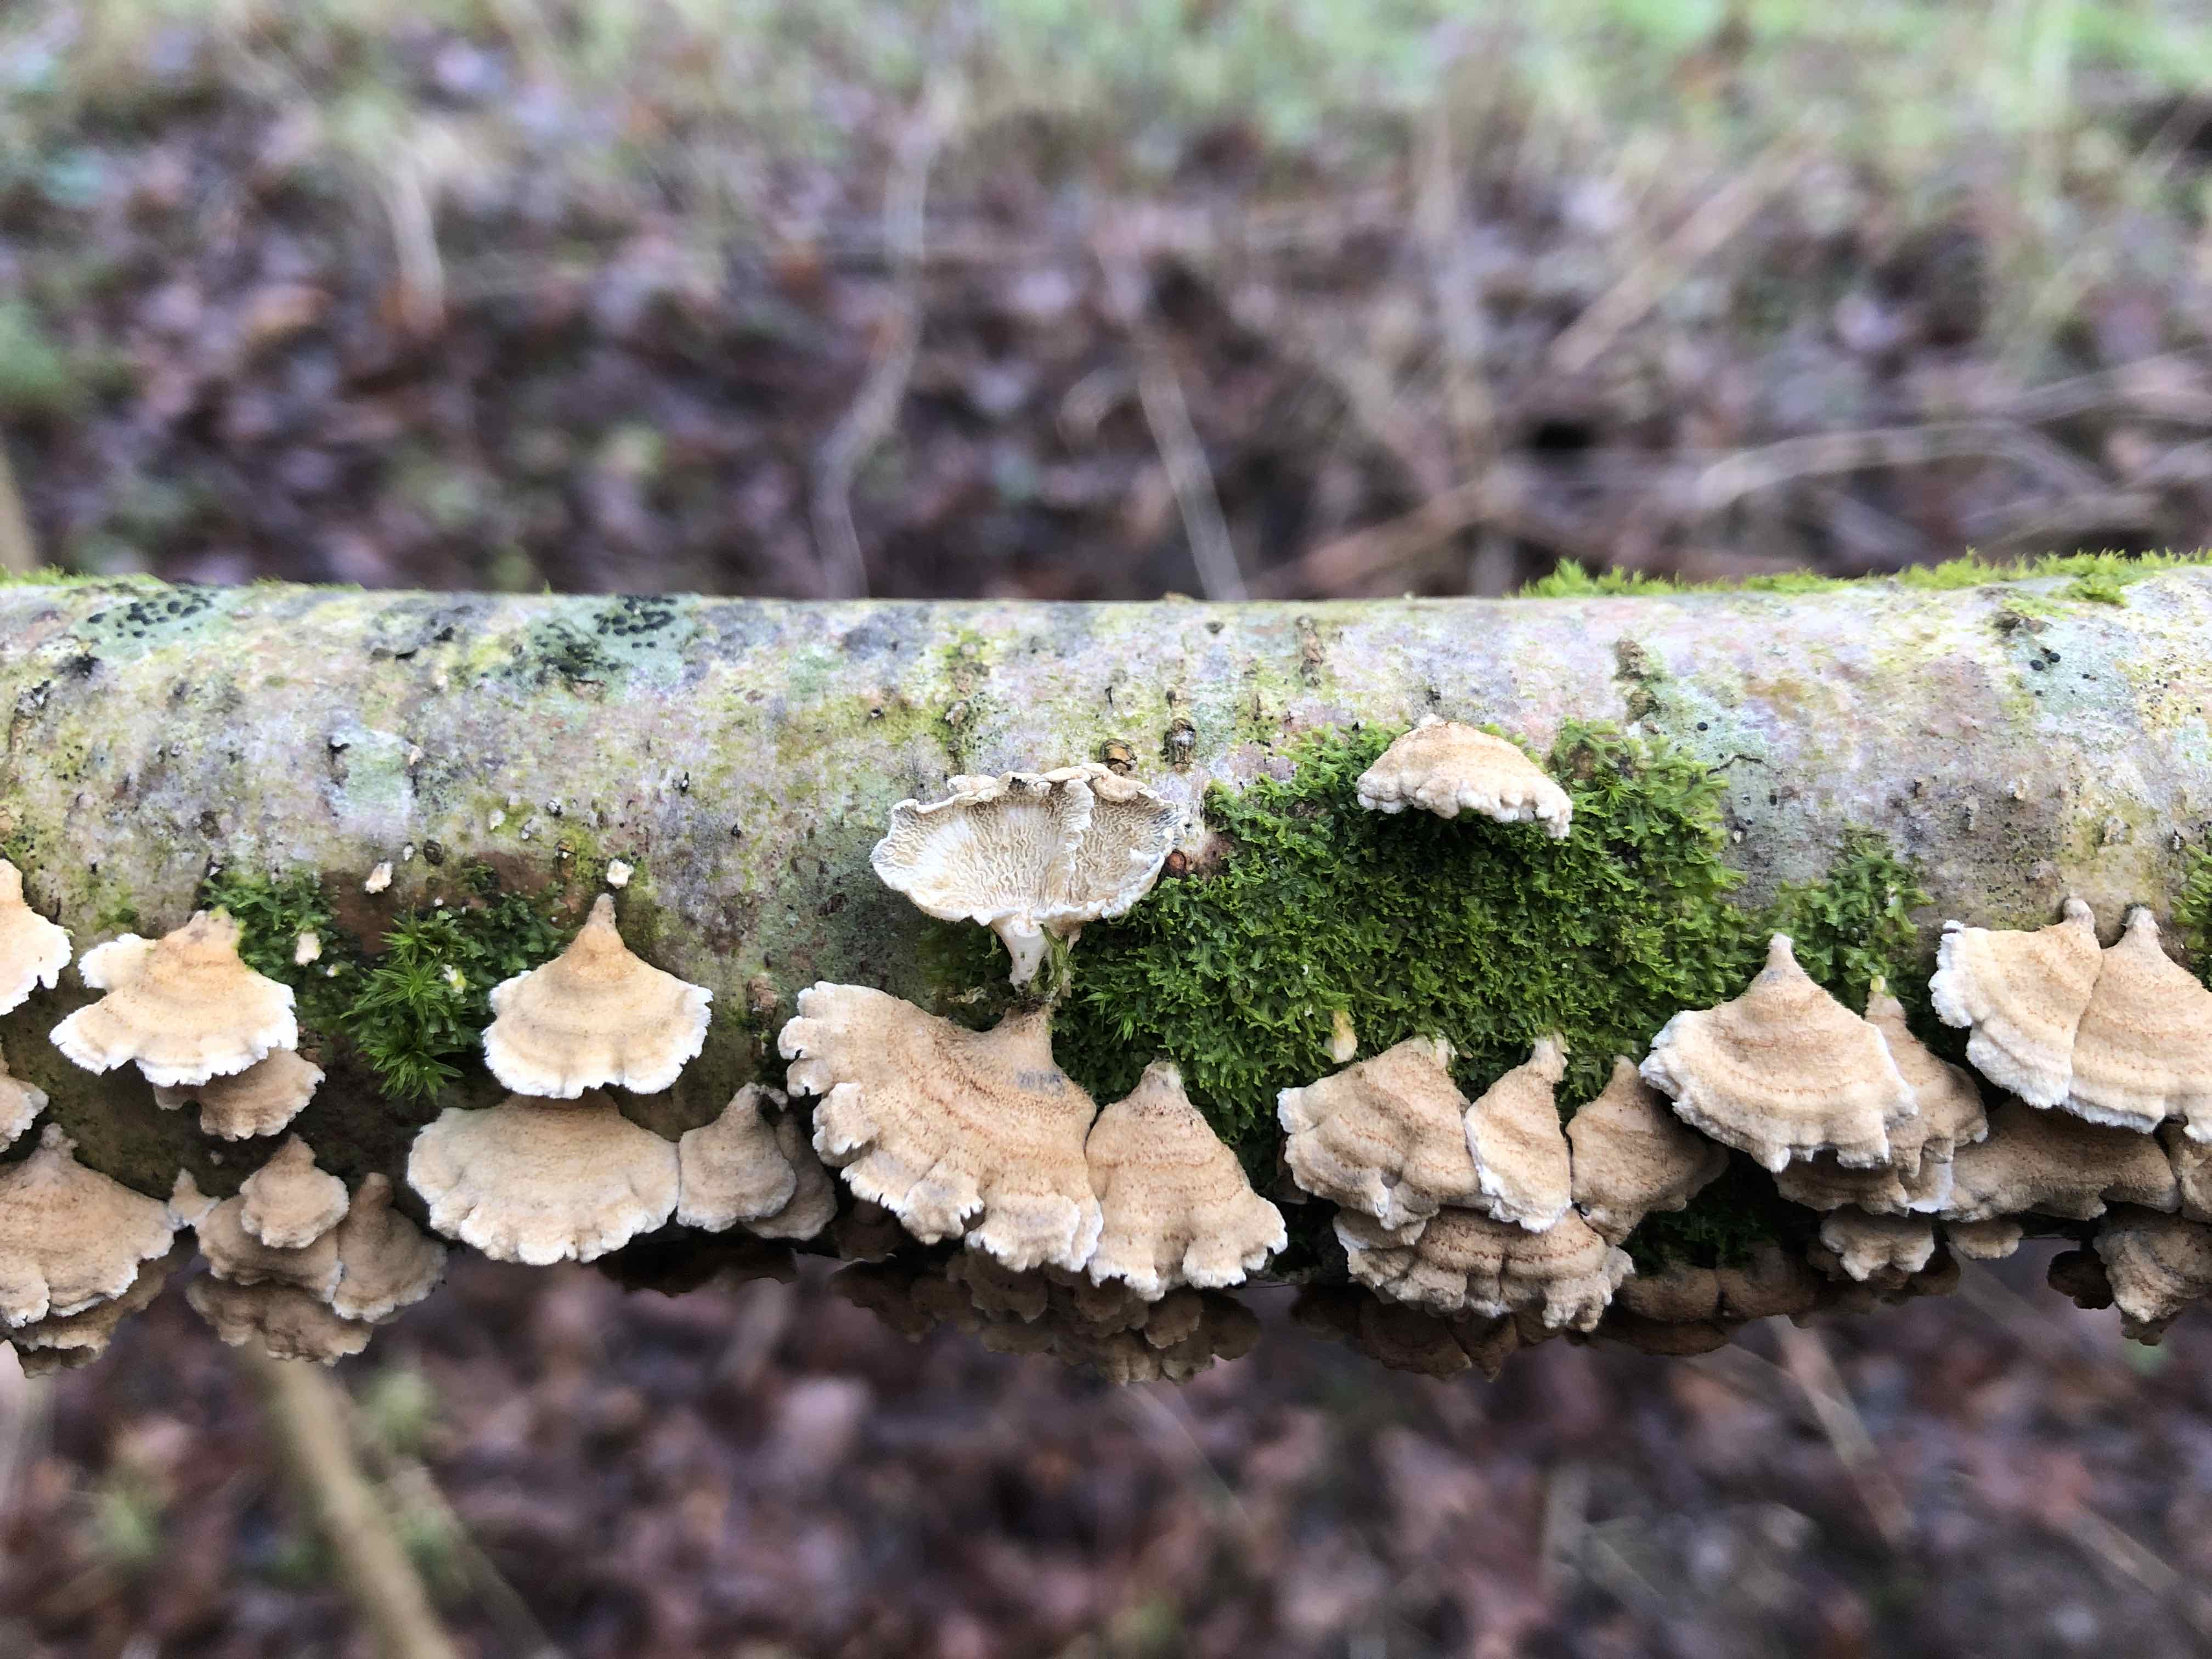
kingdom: Fungi
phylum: Basidiomycota
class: Agaricomycetes
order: Amylocorticiales
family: Amylocorticiaceae
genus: Plicaturopsis
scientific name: Plicaturopsis crispa
